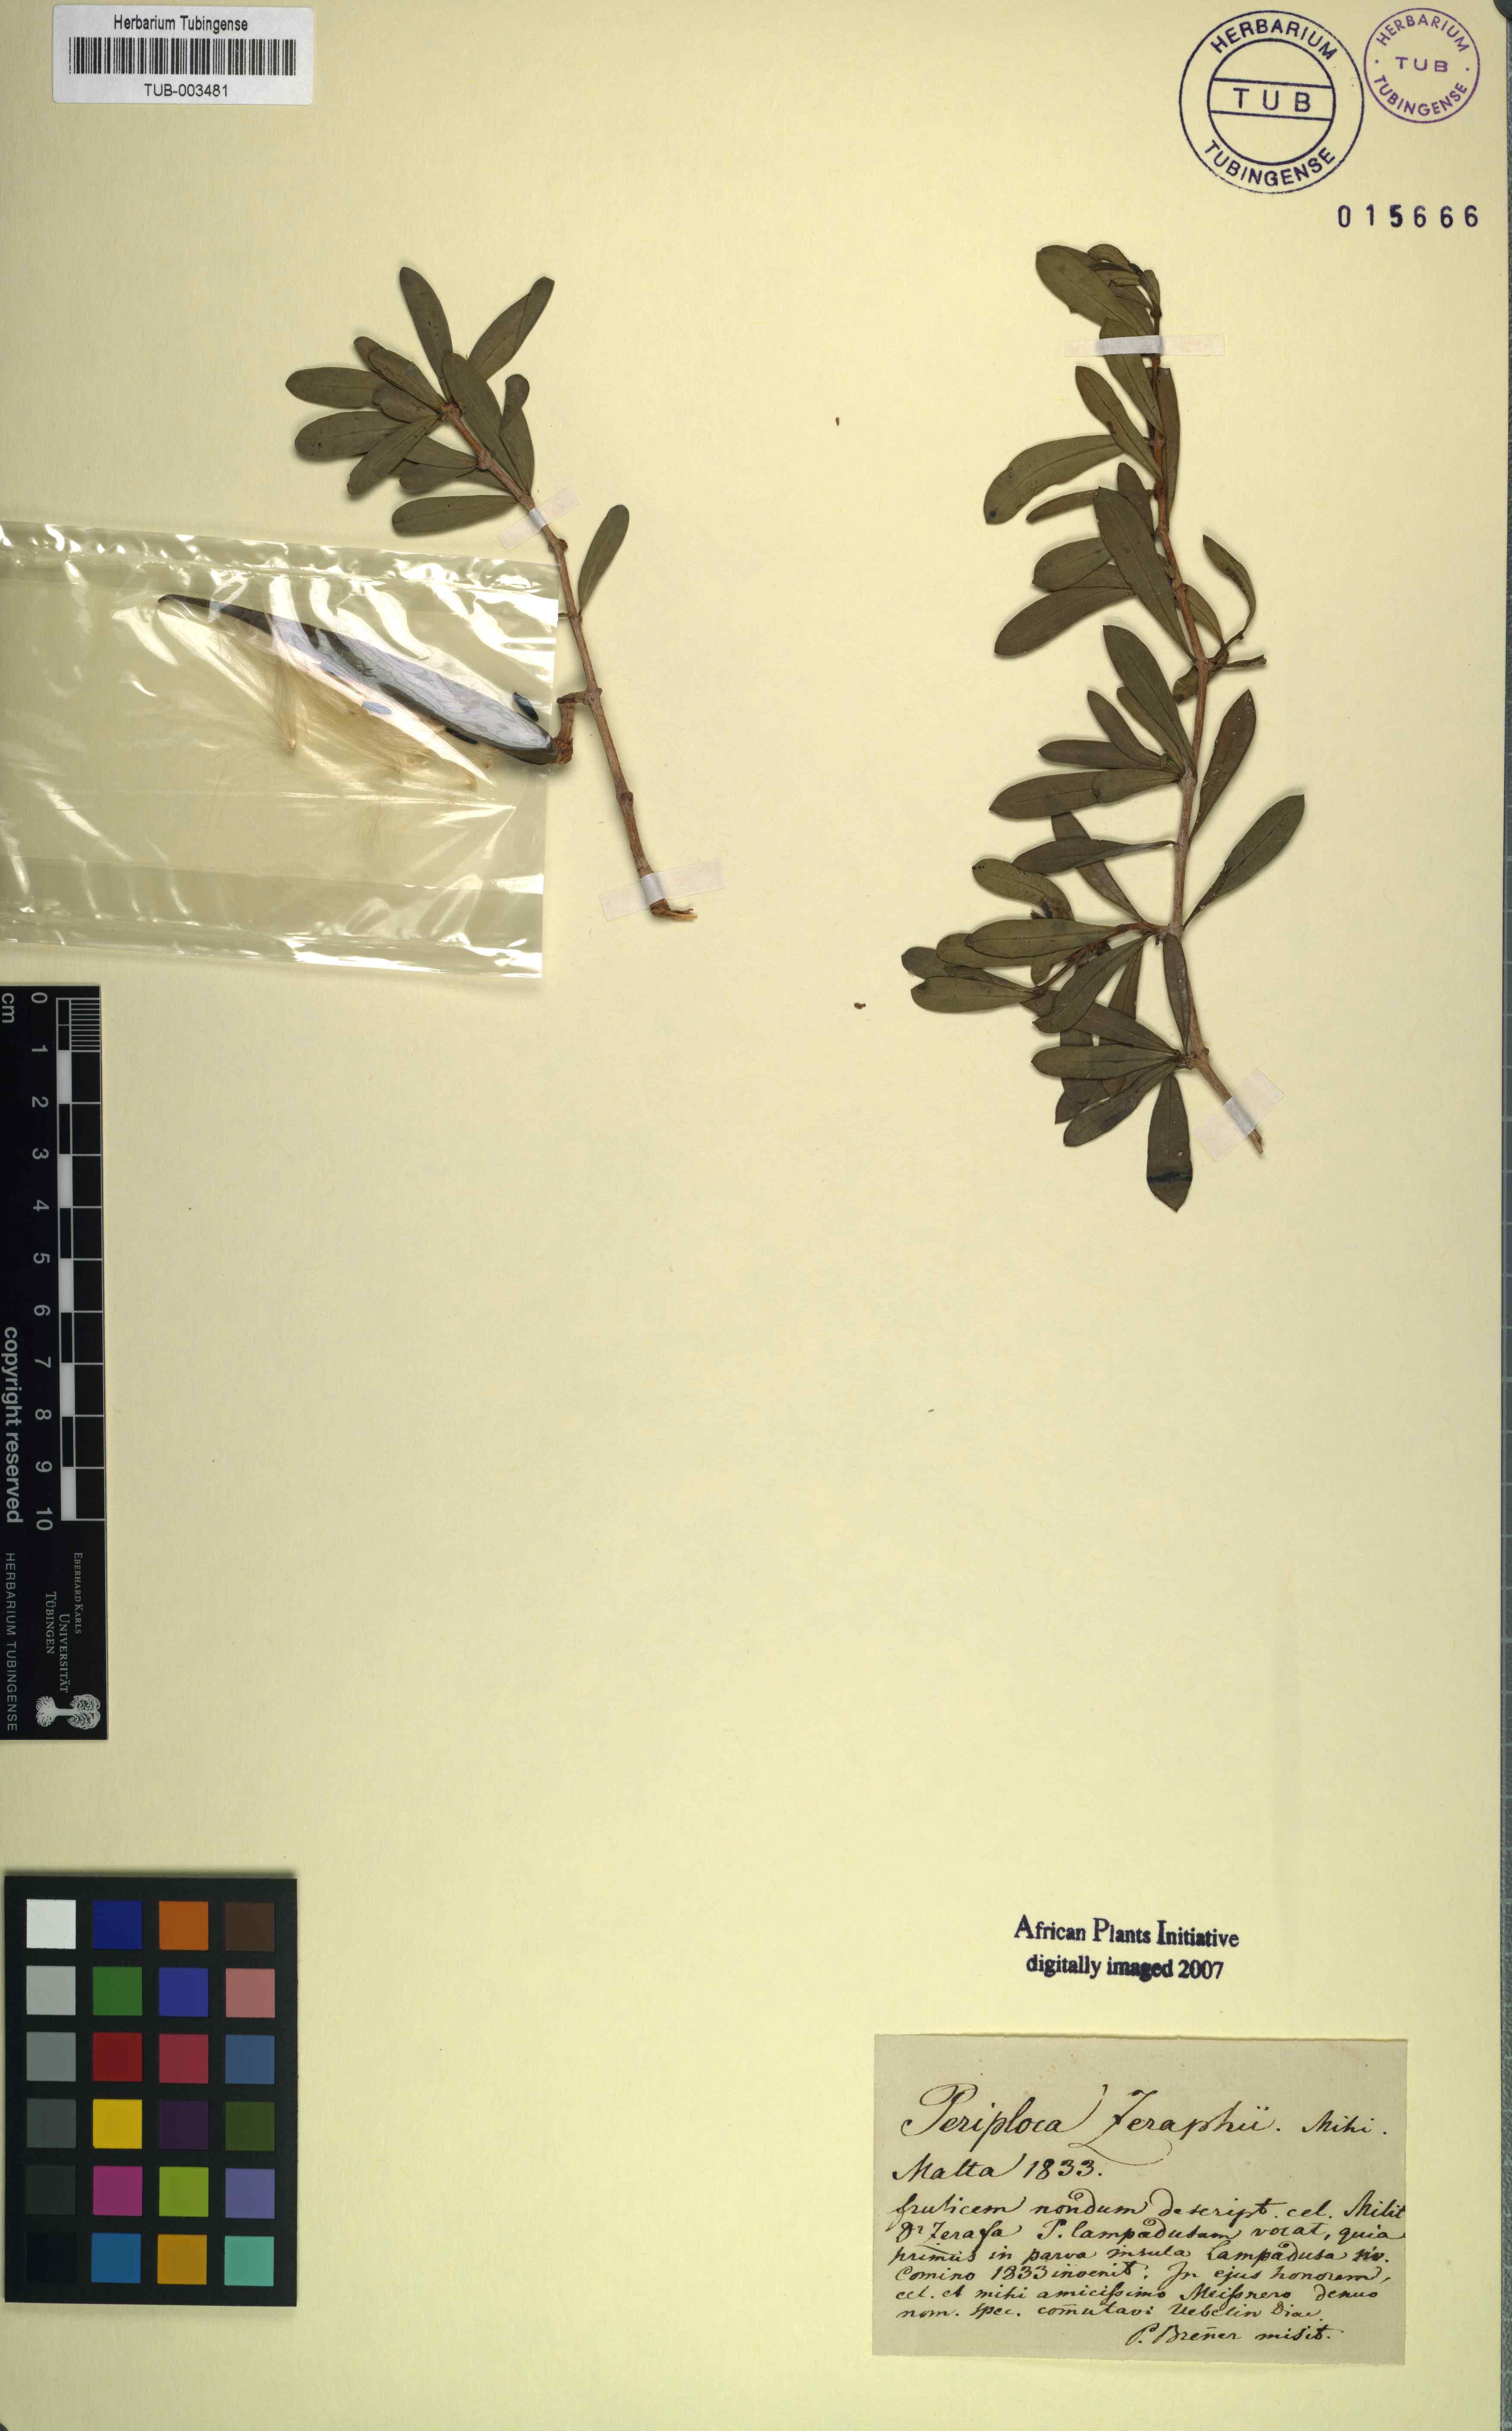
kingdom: Plantae
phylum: Tracheophyta
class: Magnoliopsida
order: Gentianales
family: Apocynaceae
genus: Periploca
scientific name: Periploca
